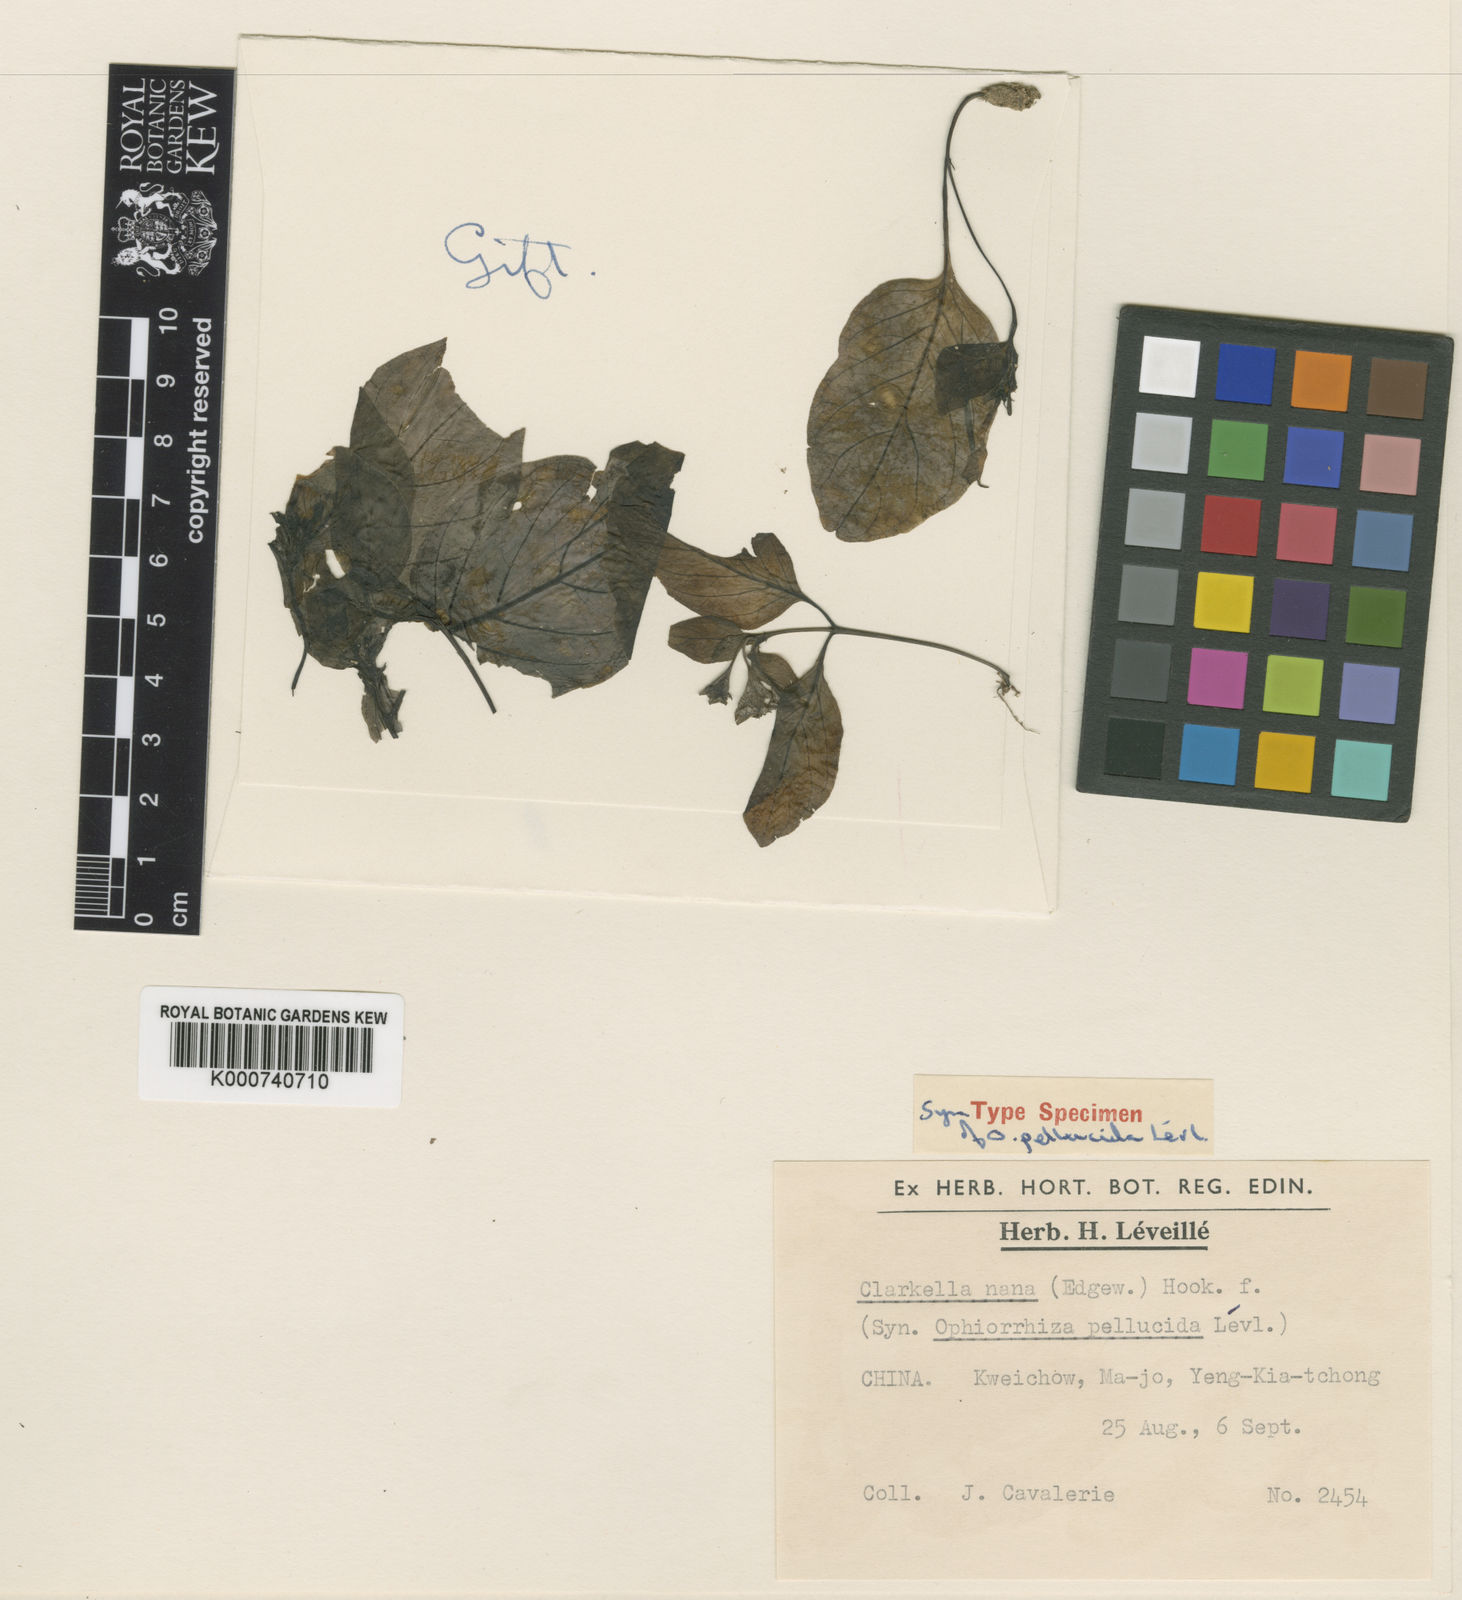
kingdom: Plantae
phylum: Tracheophyta
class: Magnoliopsida
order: Gentianales
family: Rubiaceae
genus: Clarkella
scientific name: Clarkella nana
